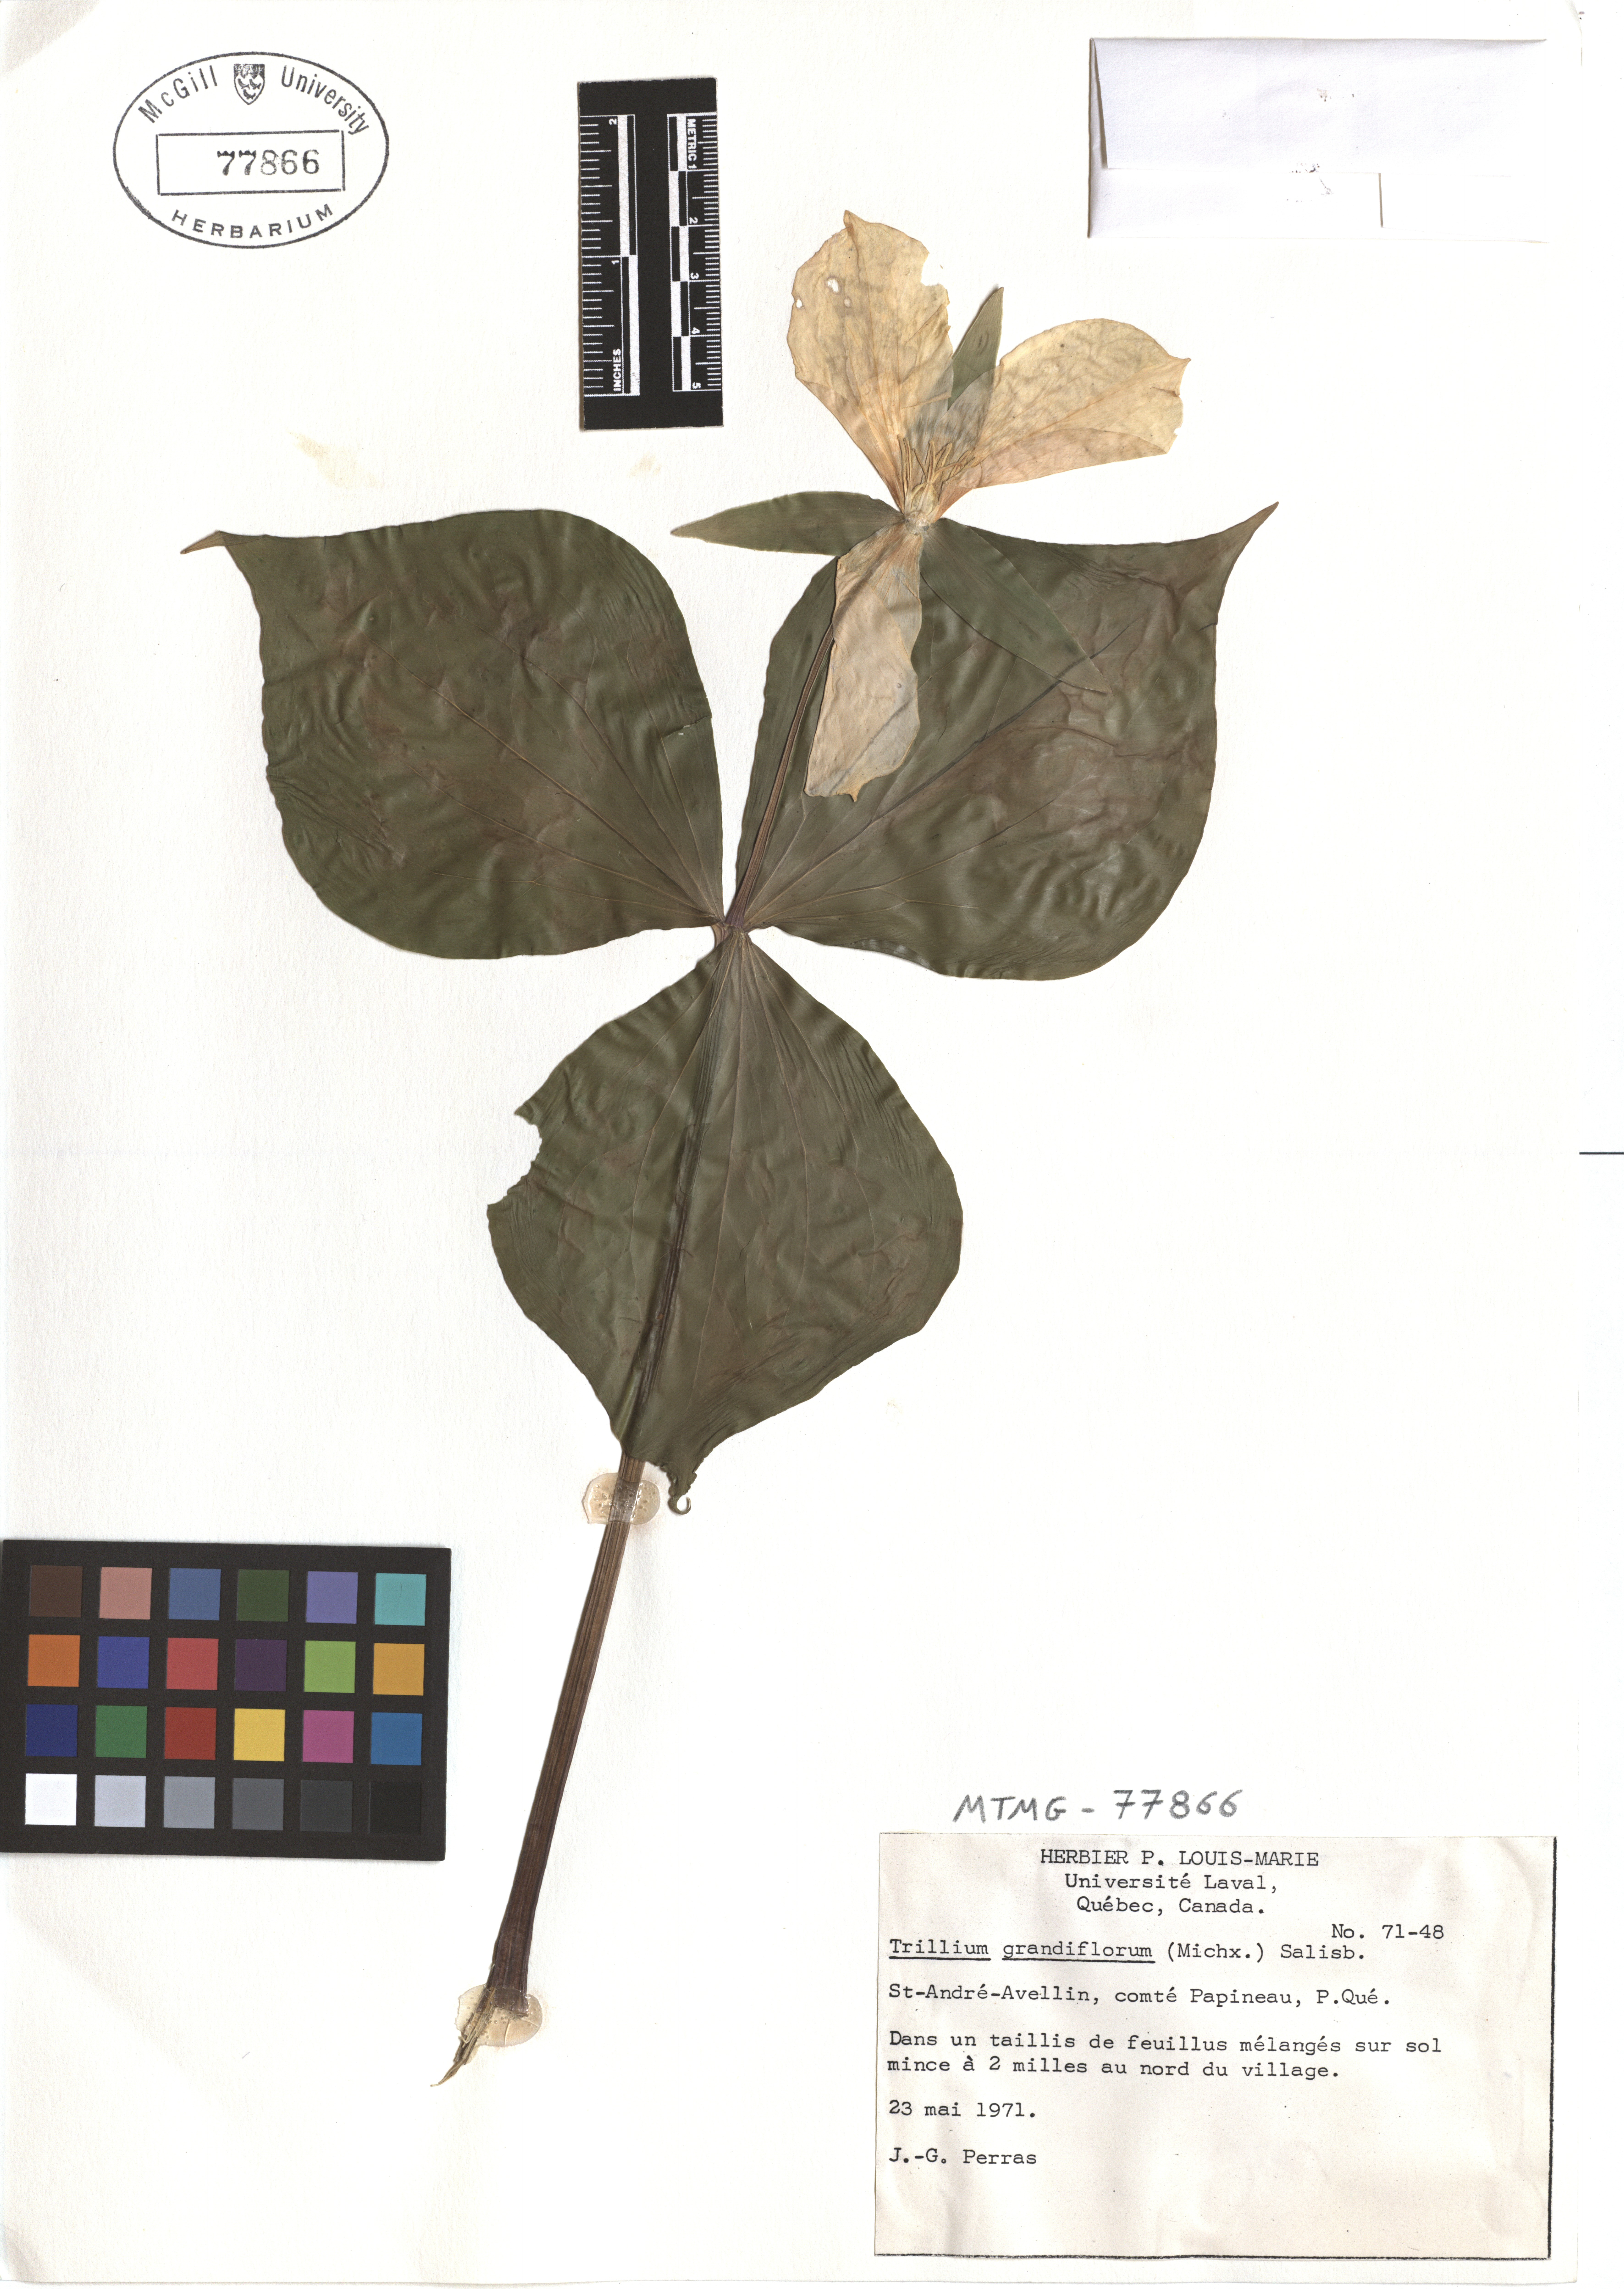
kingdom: Plantae
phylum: Tracheophyta
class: Liliopsida
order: Liliales
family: Melanthiaceae
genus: Trillium
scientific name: Trillium grandiflorum
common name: Great white trillium
